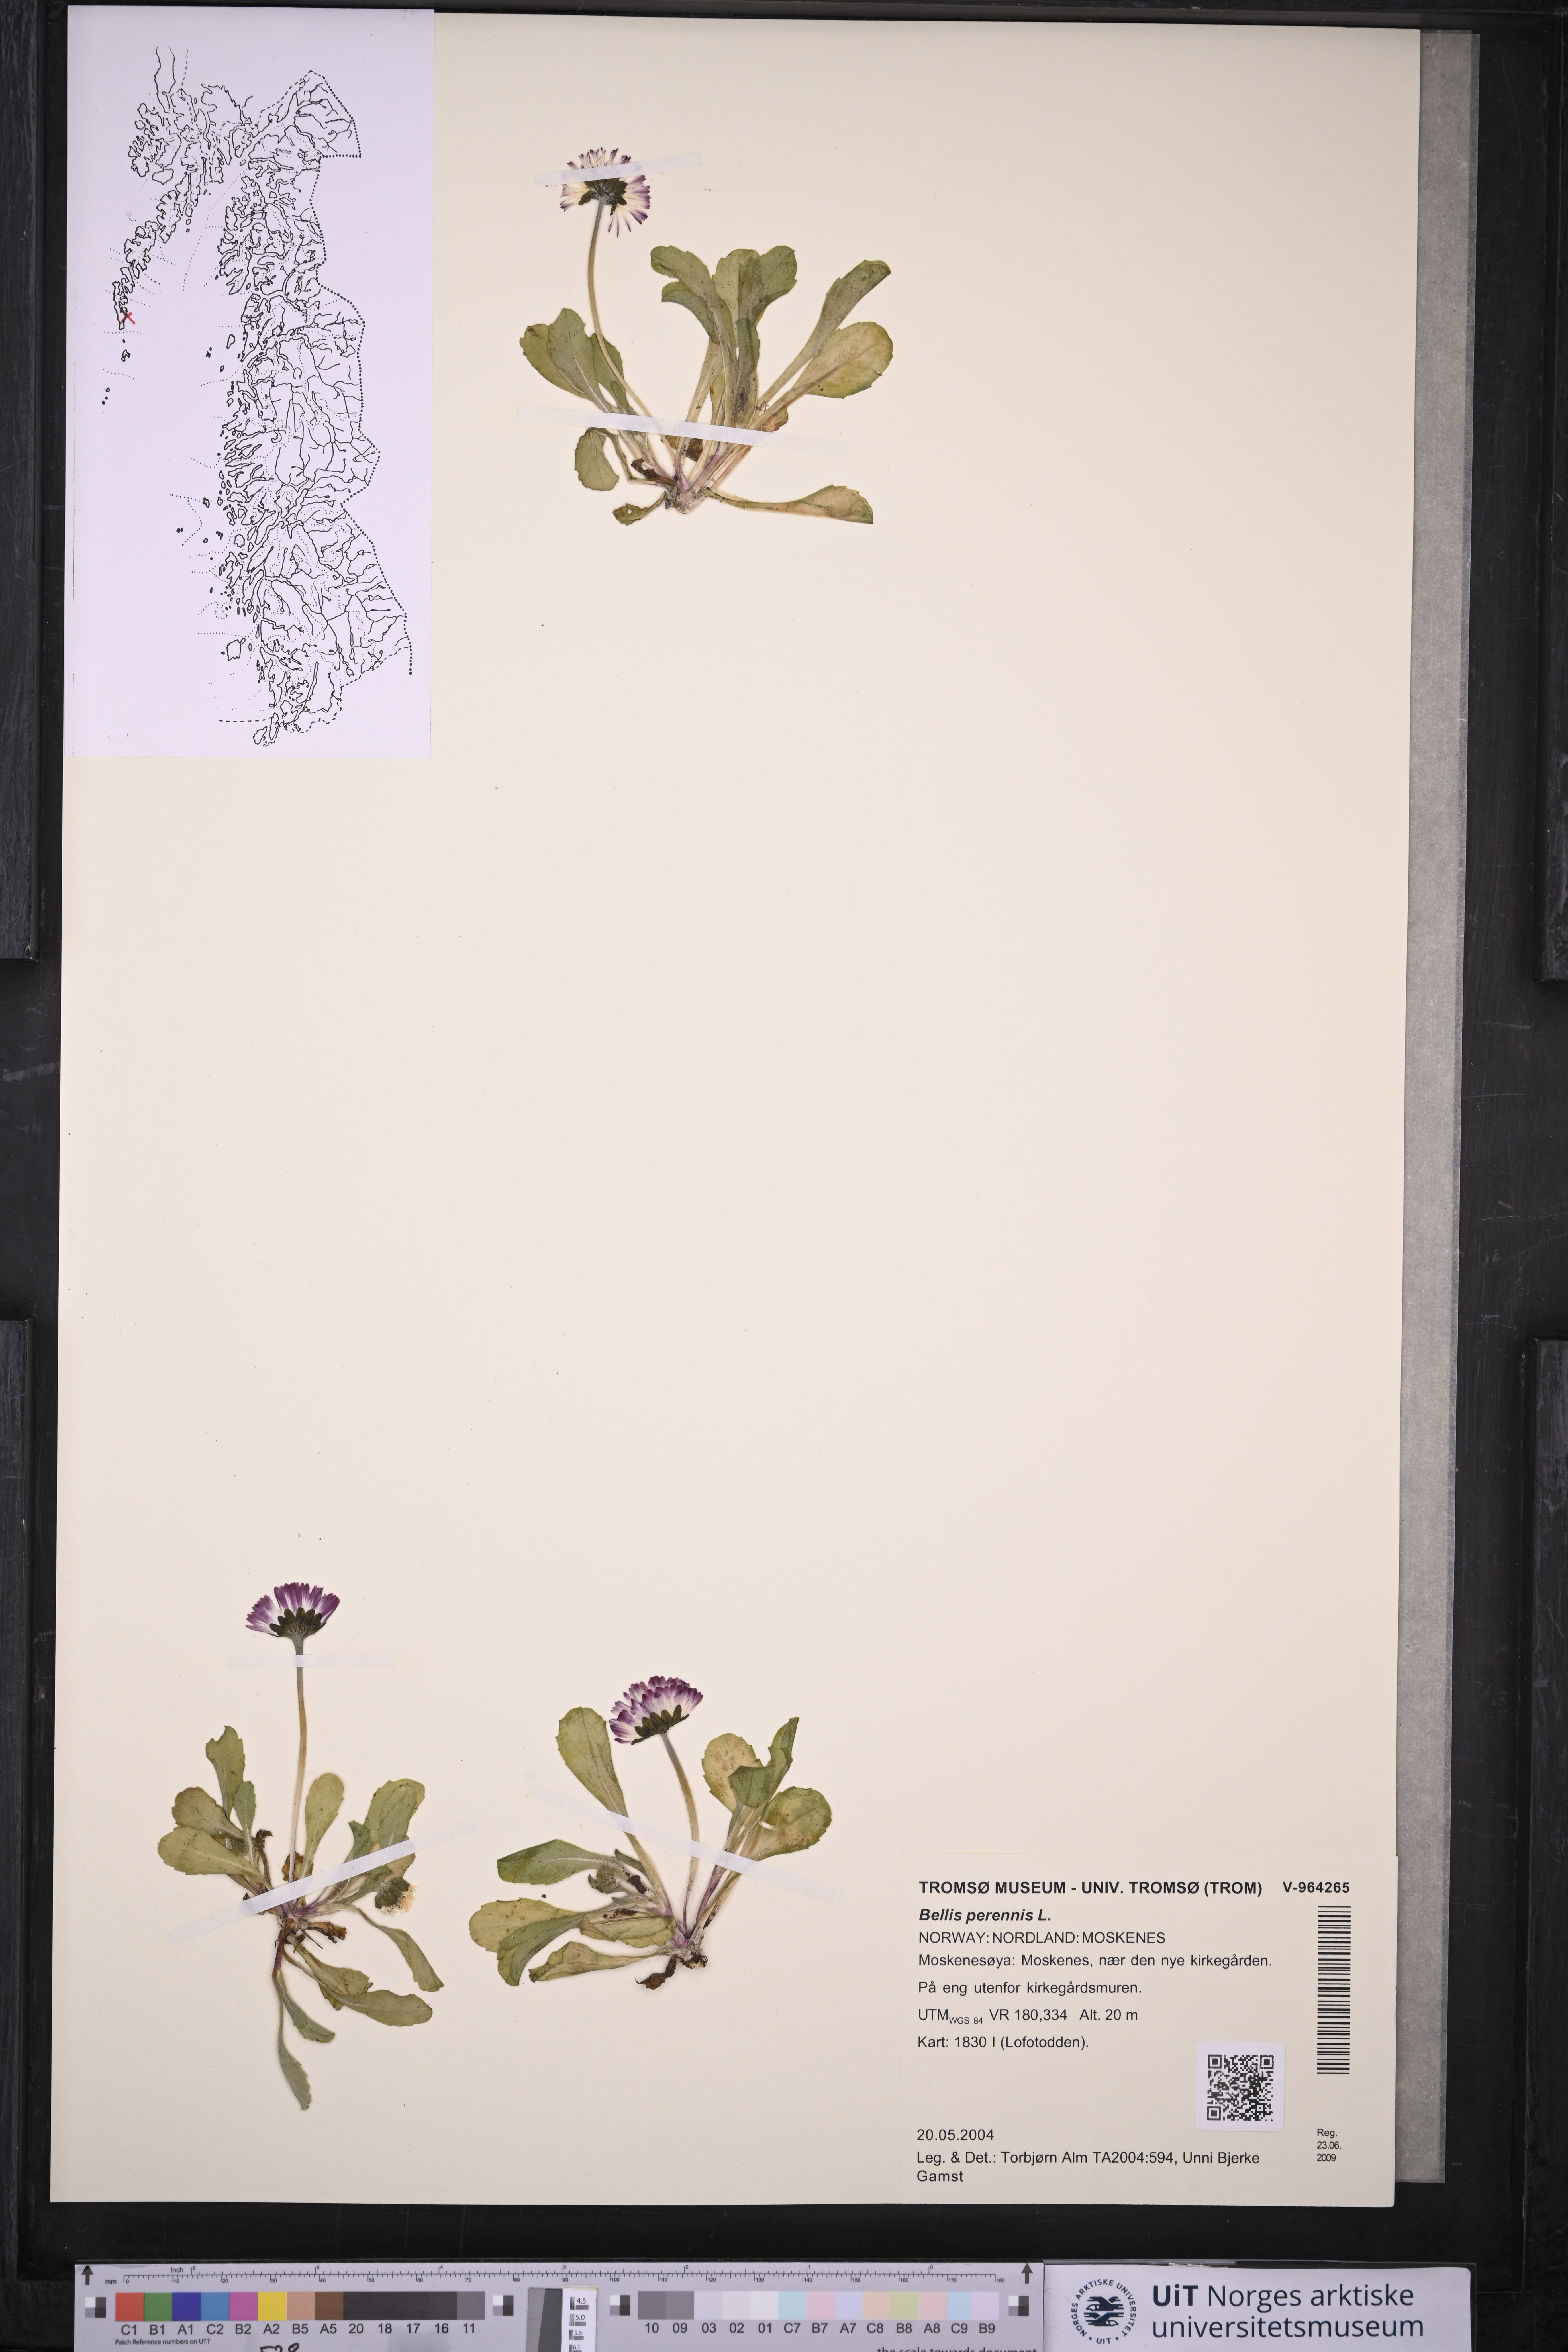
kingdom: Plantae
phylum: Tracheophyta
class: Magnoliopsida
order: Asterales
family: Asteraceae
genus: Bellis
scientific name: Bellis perennis
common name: Lawndaisy
